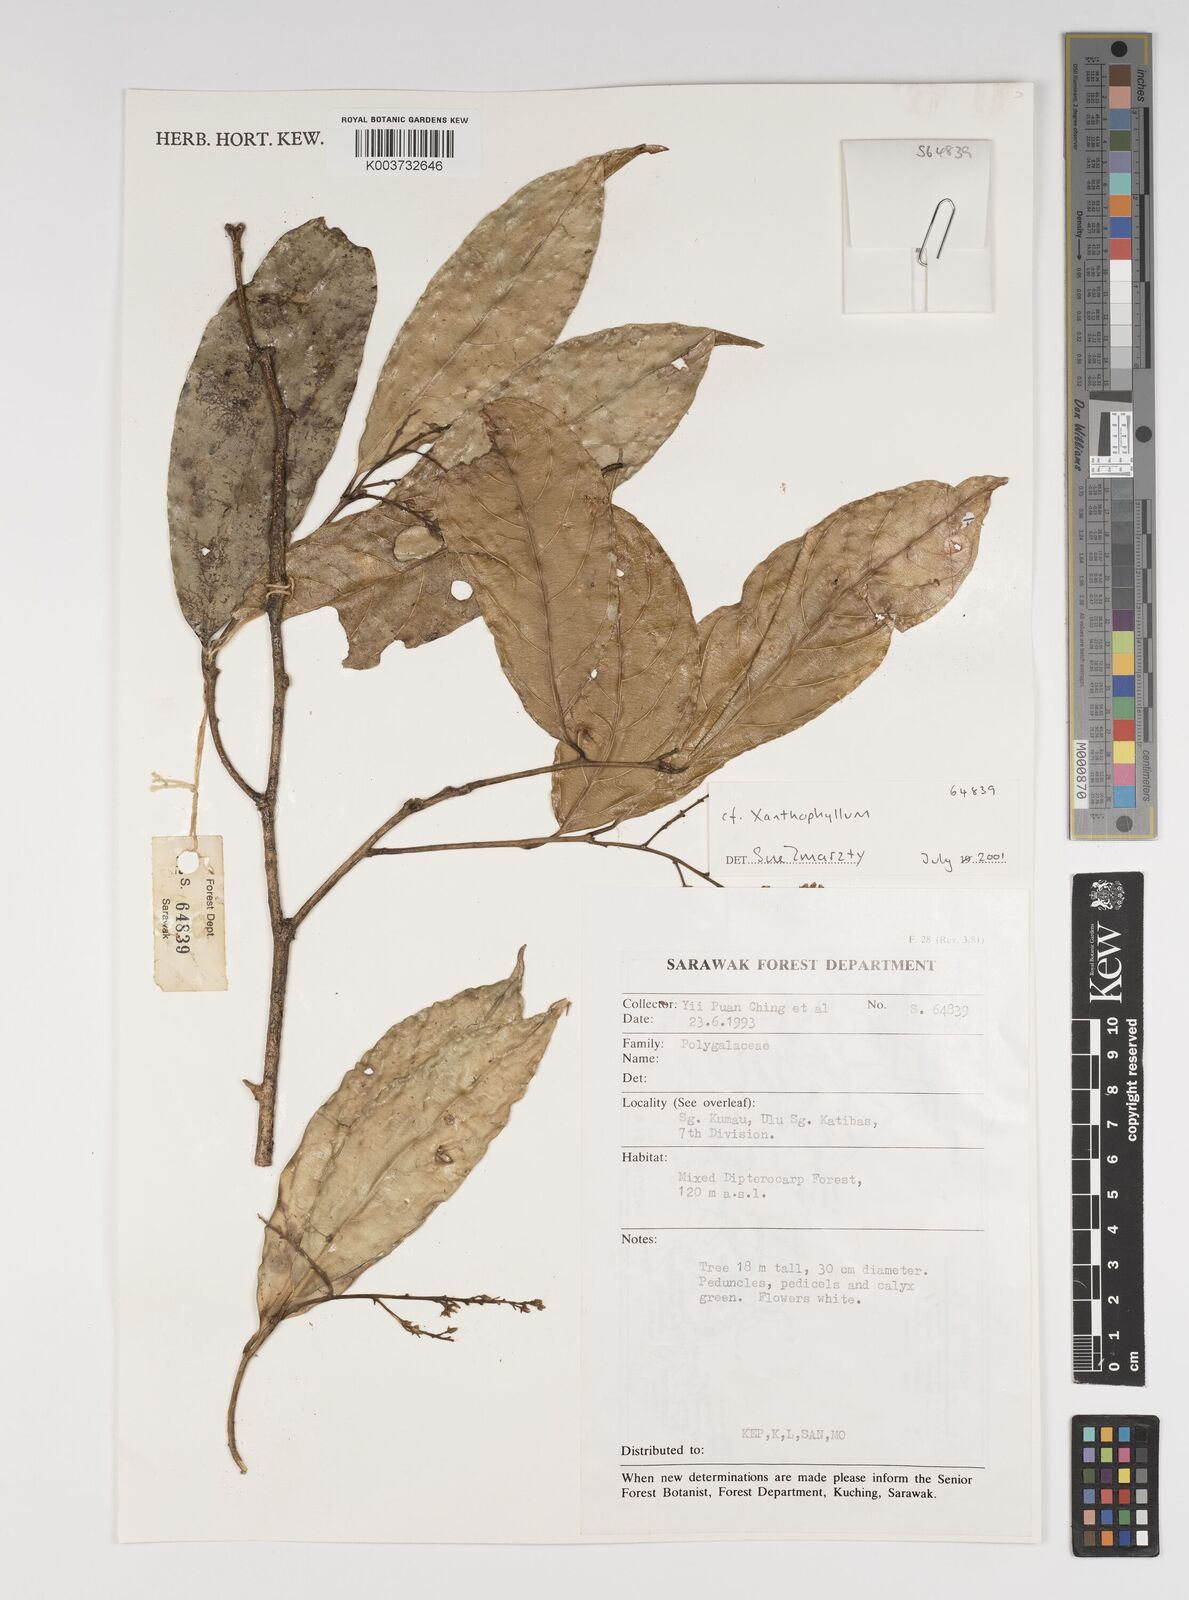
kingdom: Plantae
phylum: Tracheophyta
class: Magnoliopsida
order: Fabales
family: Polygalaceae
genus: Xanthophyllum
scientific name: Xanthophyllum
